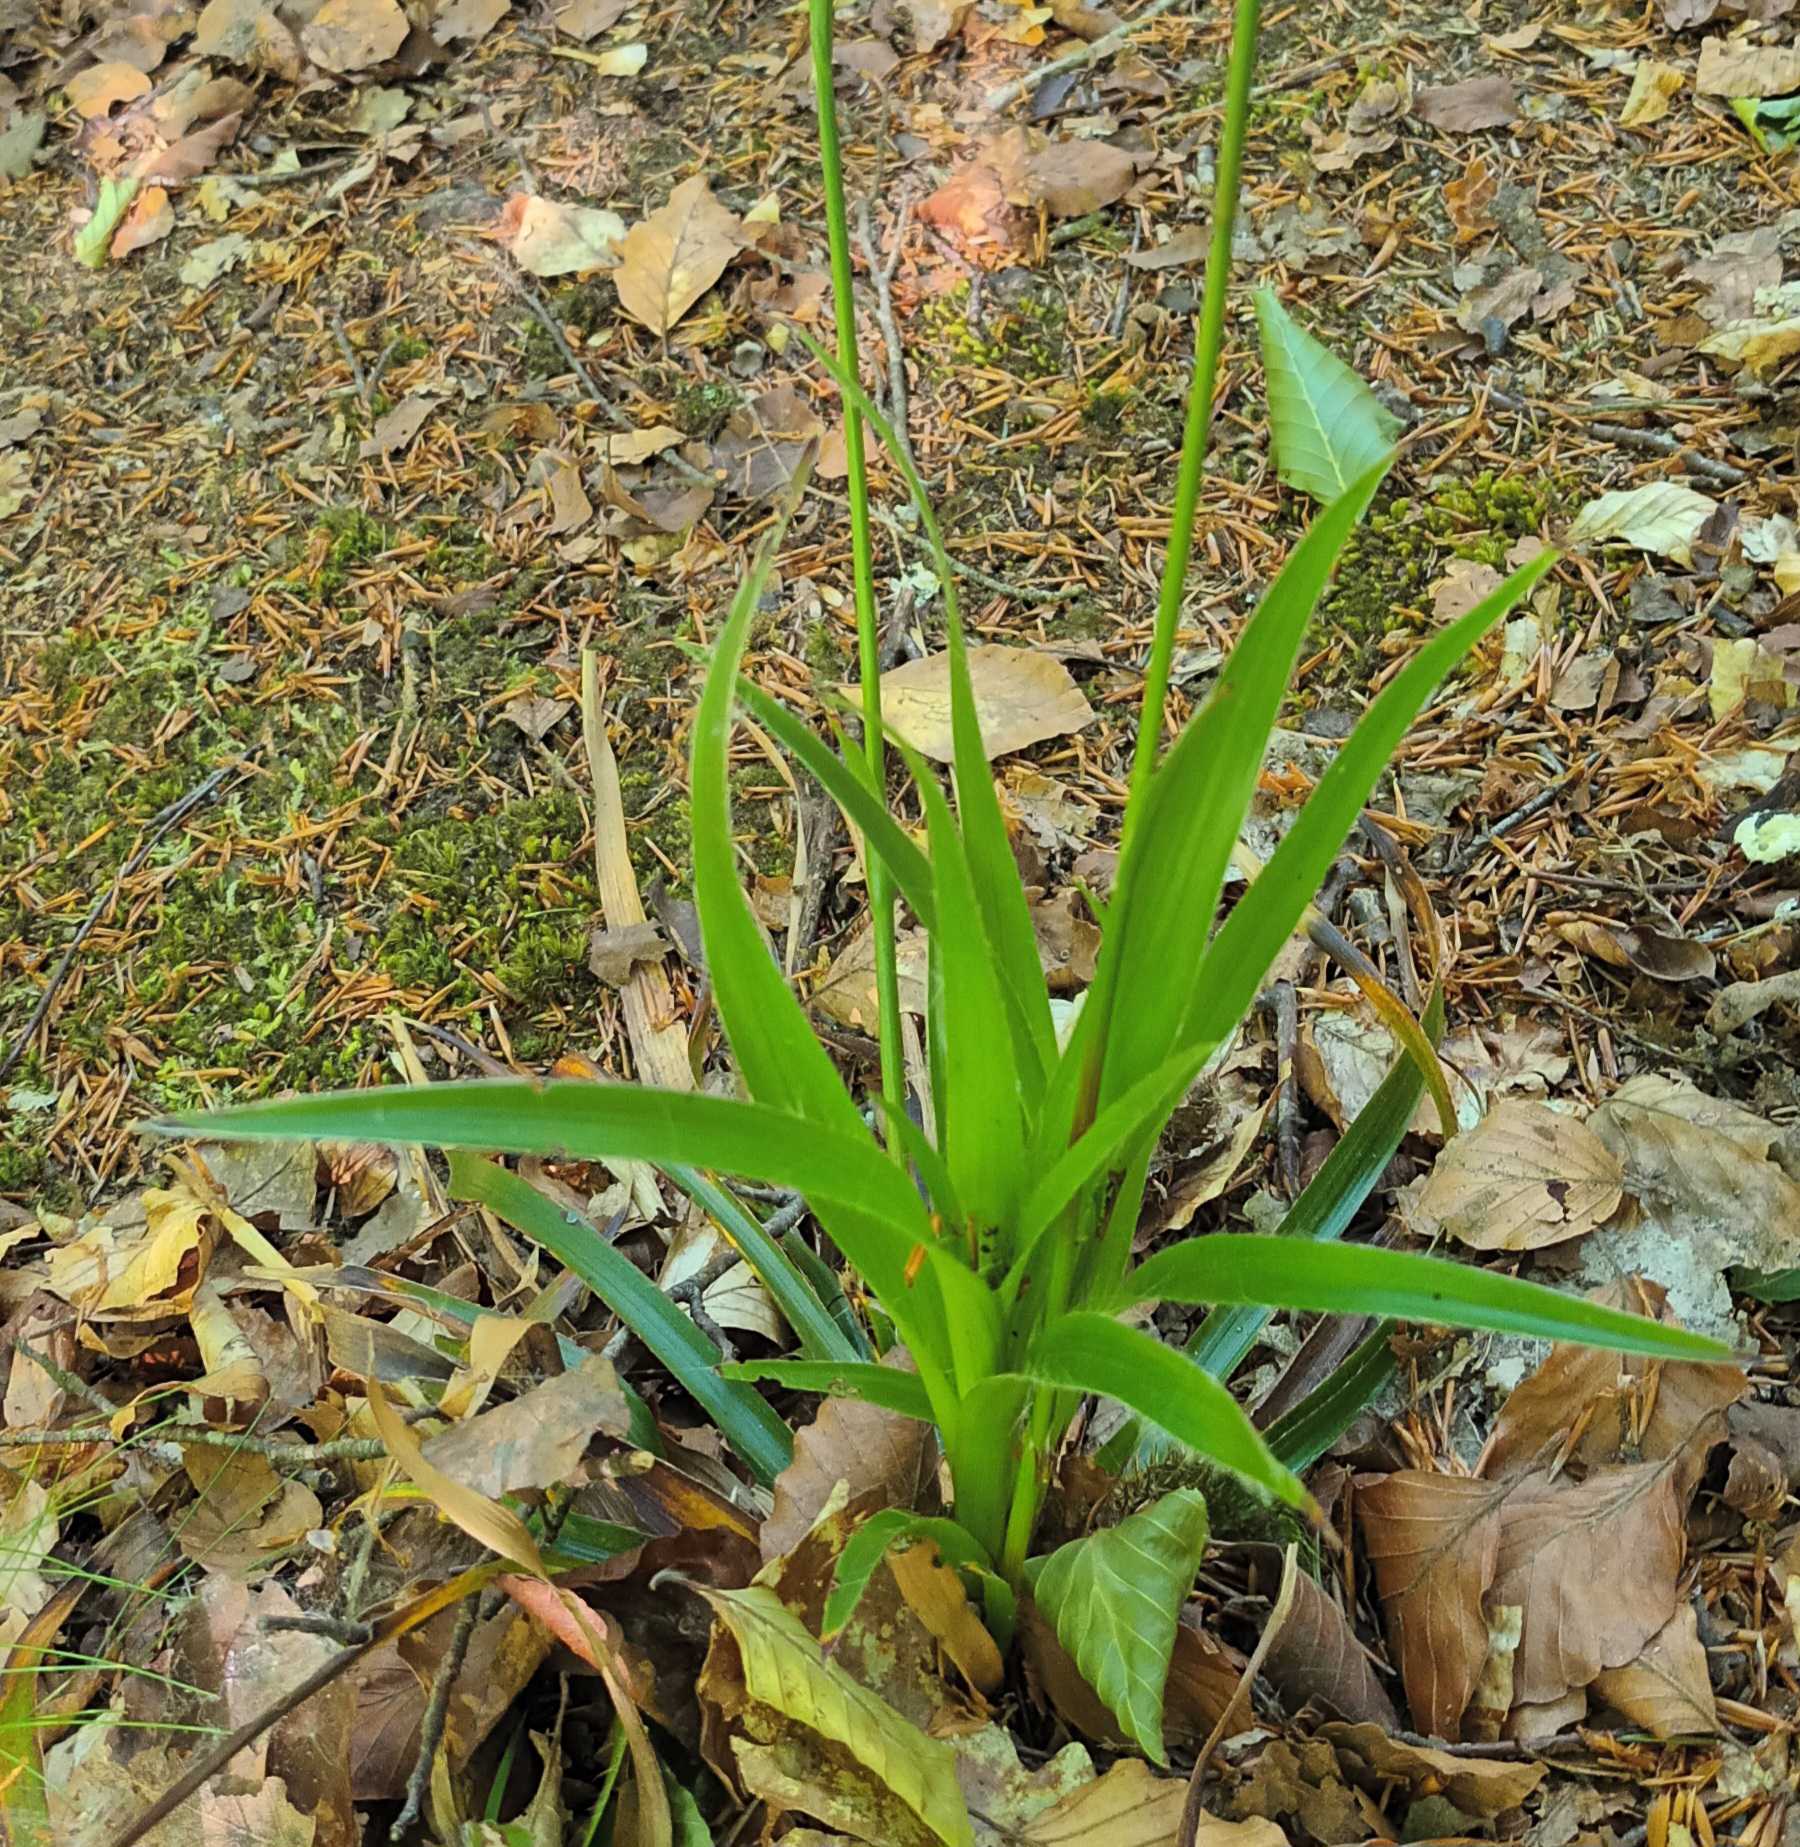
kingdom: Plantae
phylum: Tracheophyta
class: Liliopsida
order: Poales
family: Juncaceae
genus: Luzula
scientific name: Luzula sylvatica
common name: Stor frytle
